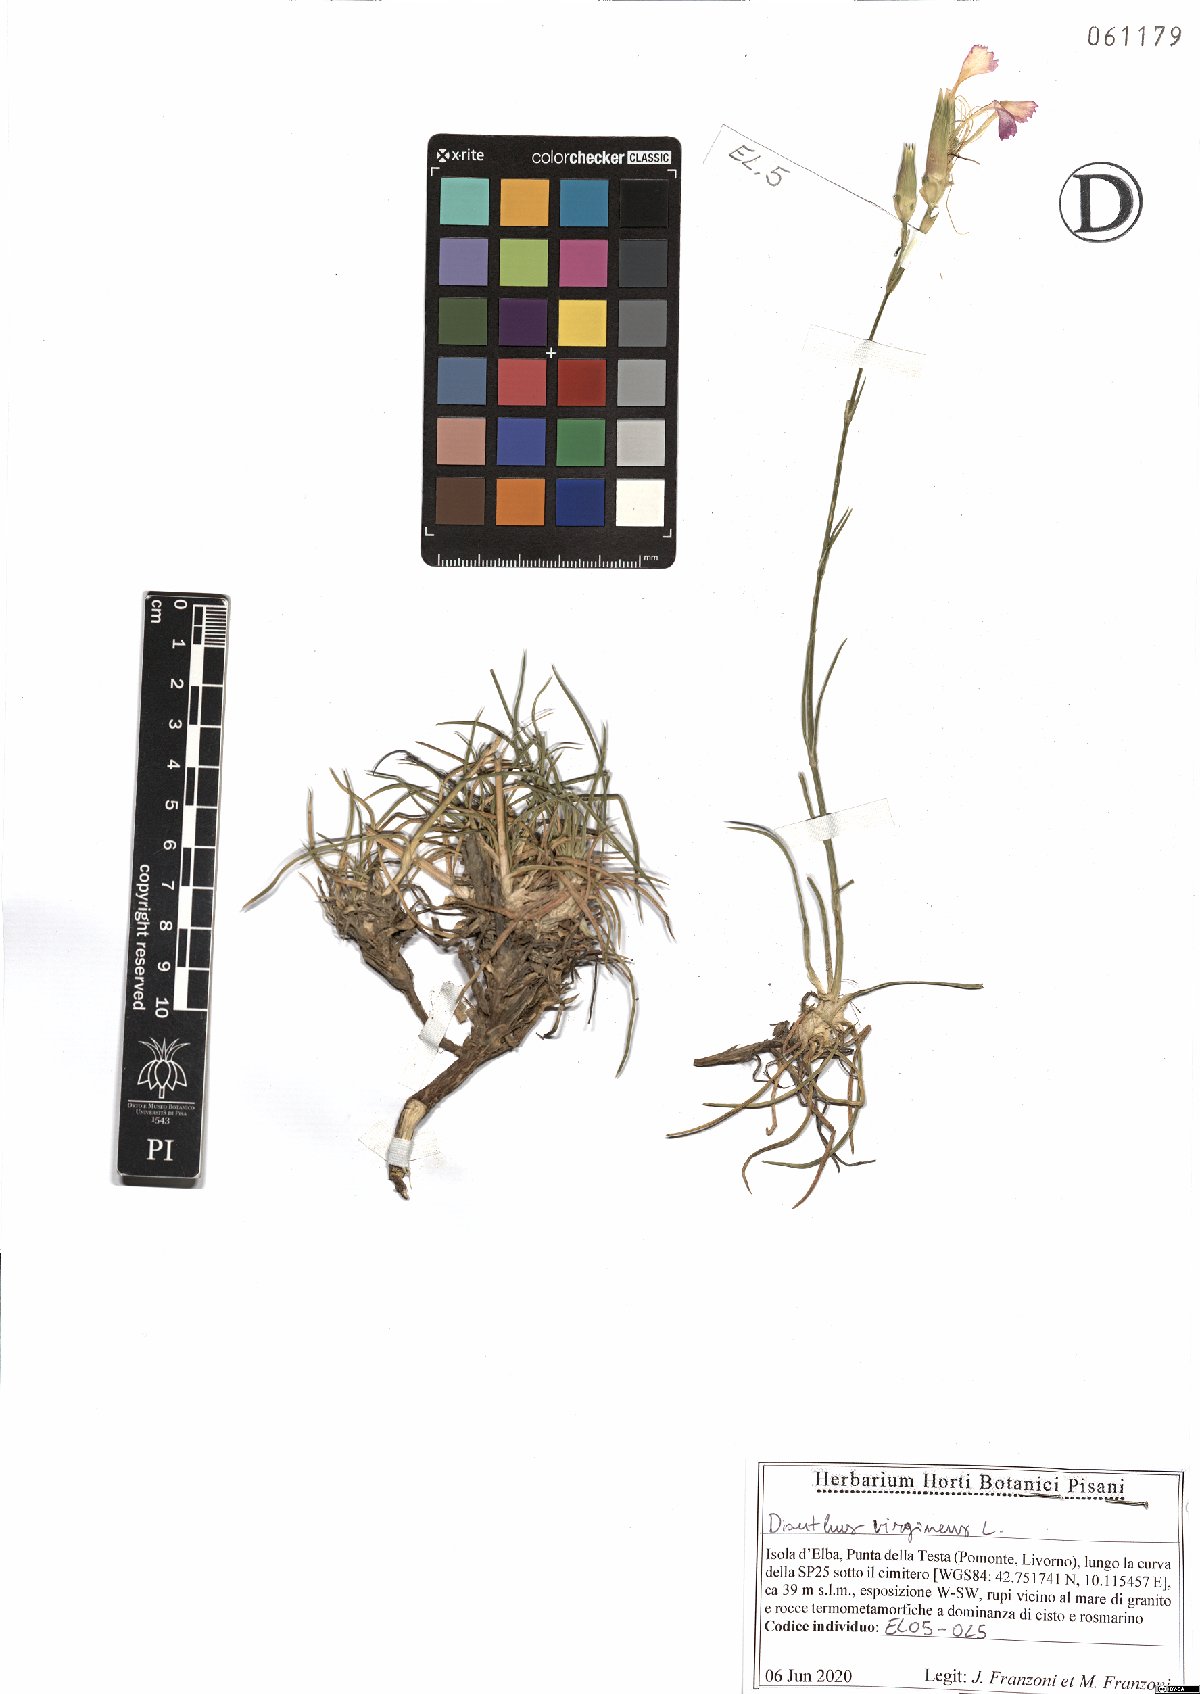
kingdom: Plantae
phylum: Tracheophyta
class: Magnoliopsida
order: Caryophyllales
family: Caryophyllaceae
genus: Dianthus
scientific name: Dianthus virgineus
